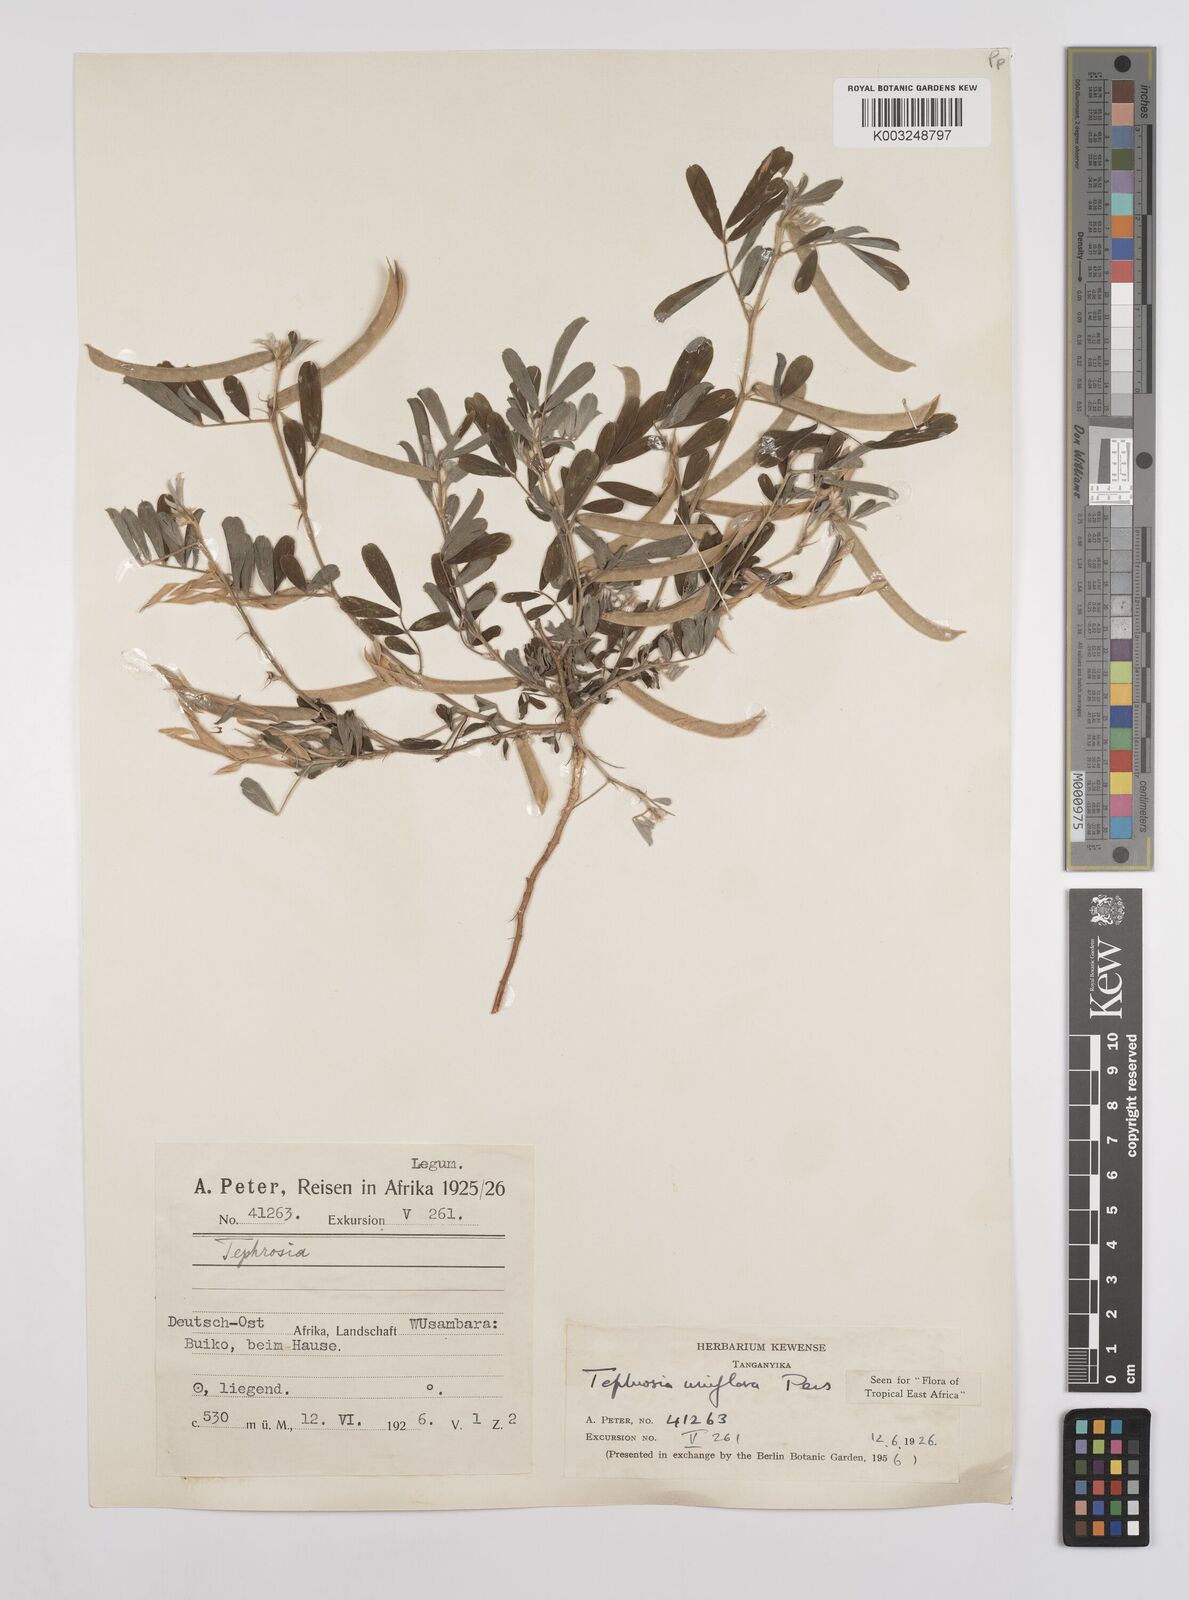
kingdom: Plantae
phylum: Tracheophyta
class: Magnoliopsida
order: Fabales
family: Fabaceae
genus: Tephrosia
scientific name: Tephrosia uniflora
